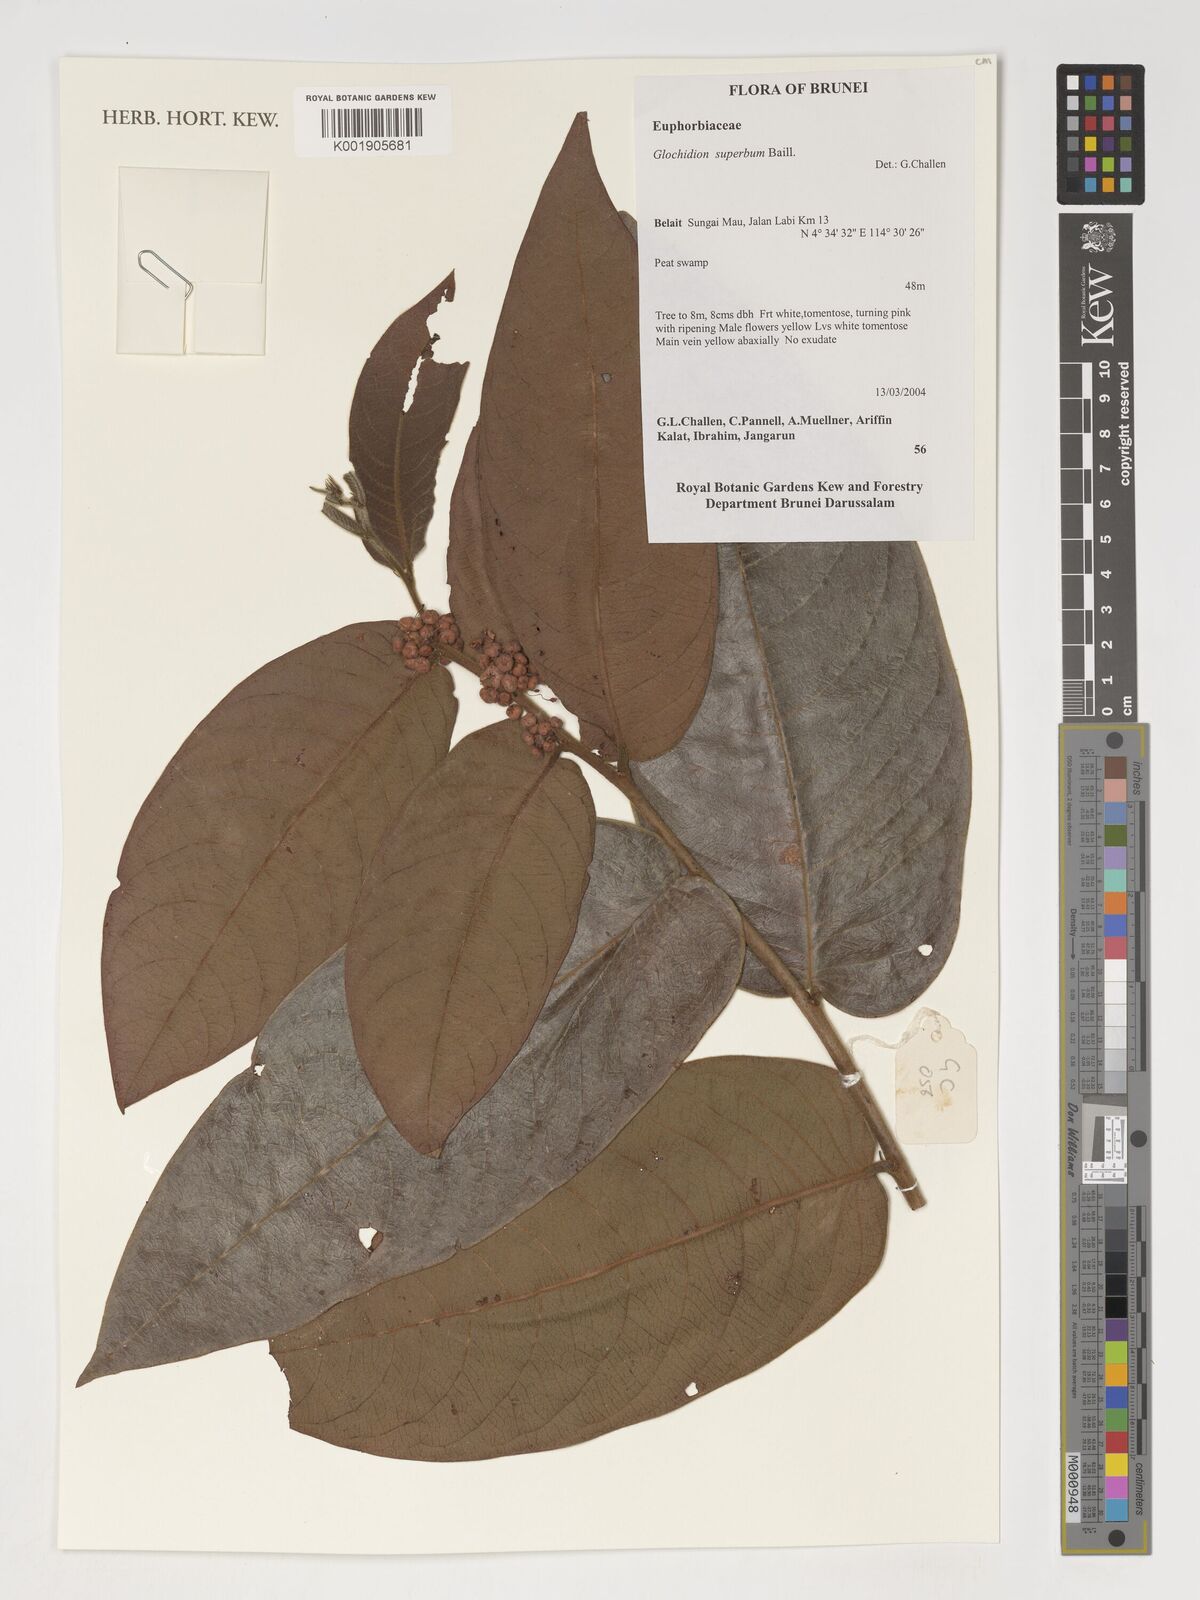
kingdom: Plantae
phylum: Tracheophyta
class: Magnoliopsida
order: Malpighiales
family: Phyllanthaceae
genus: Glochidion
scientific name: Glochidion
